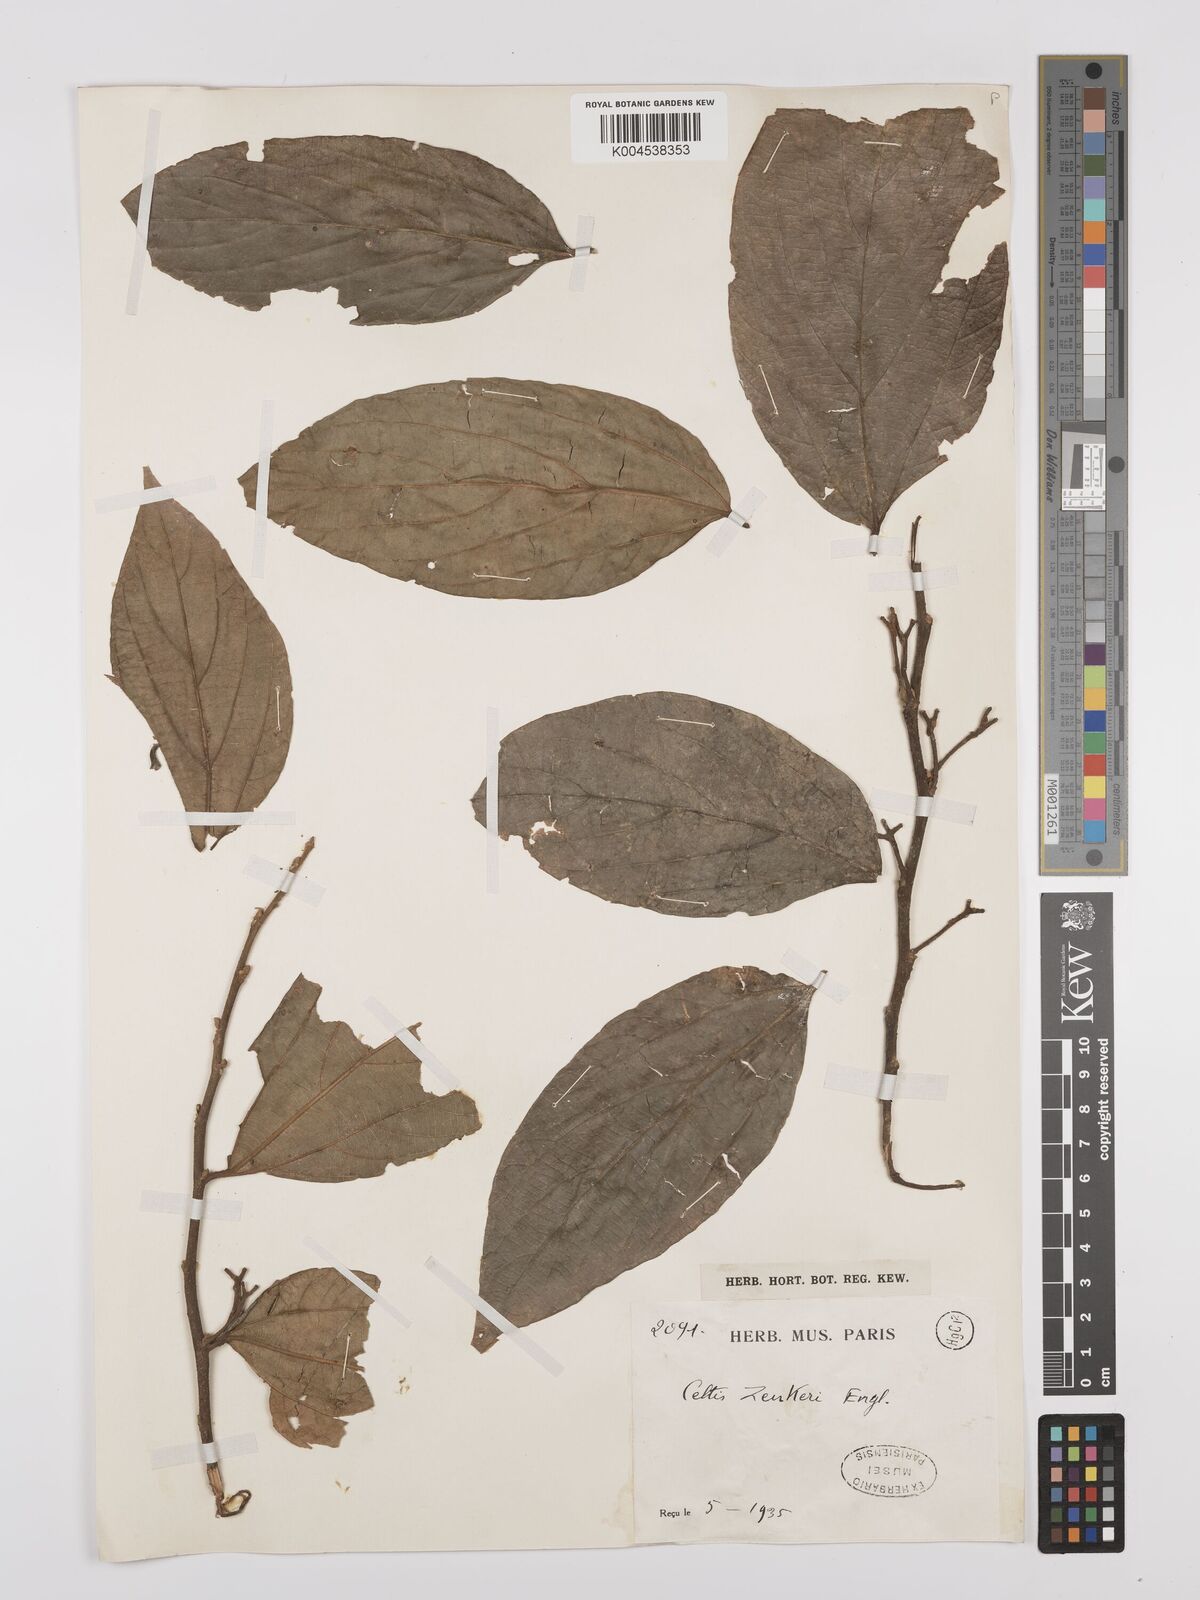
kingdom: Plantae
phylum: Tracheophyta
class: Magnoliopsida
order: Rosales
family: Cannabaceae
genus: Celtis
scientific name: Celtis zenkeri
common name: African celtis
